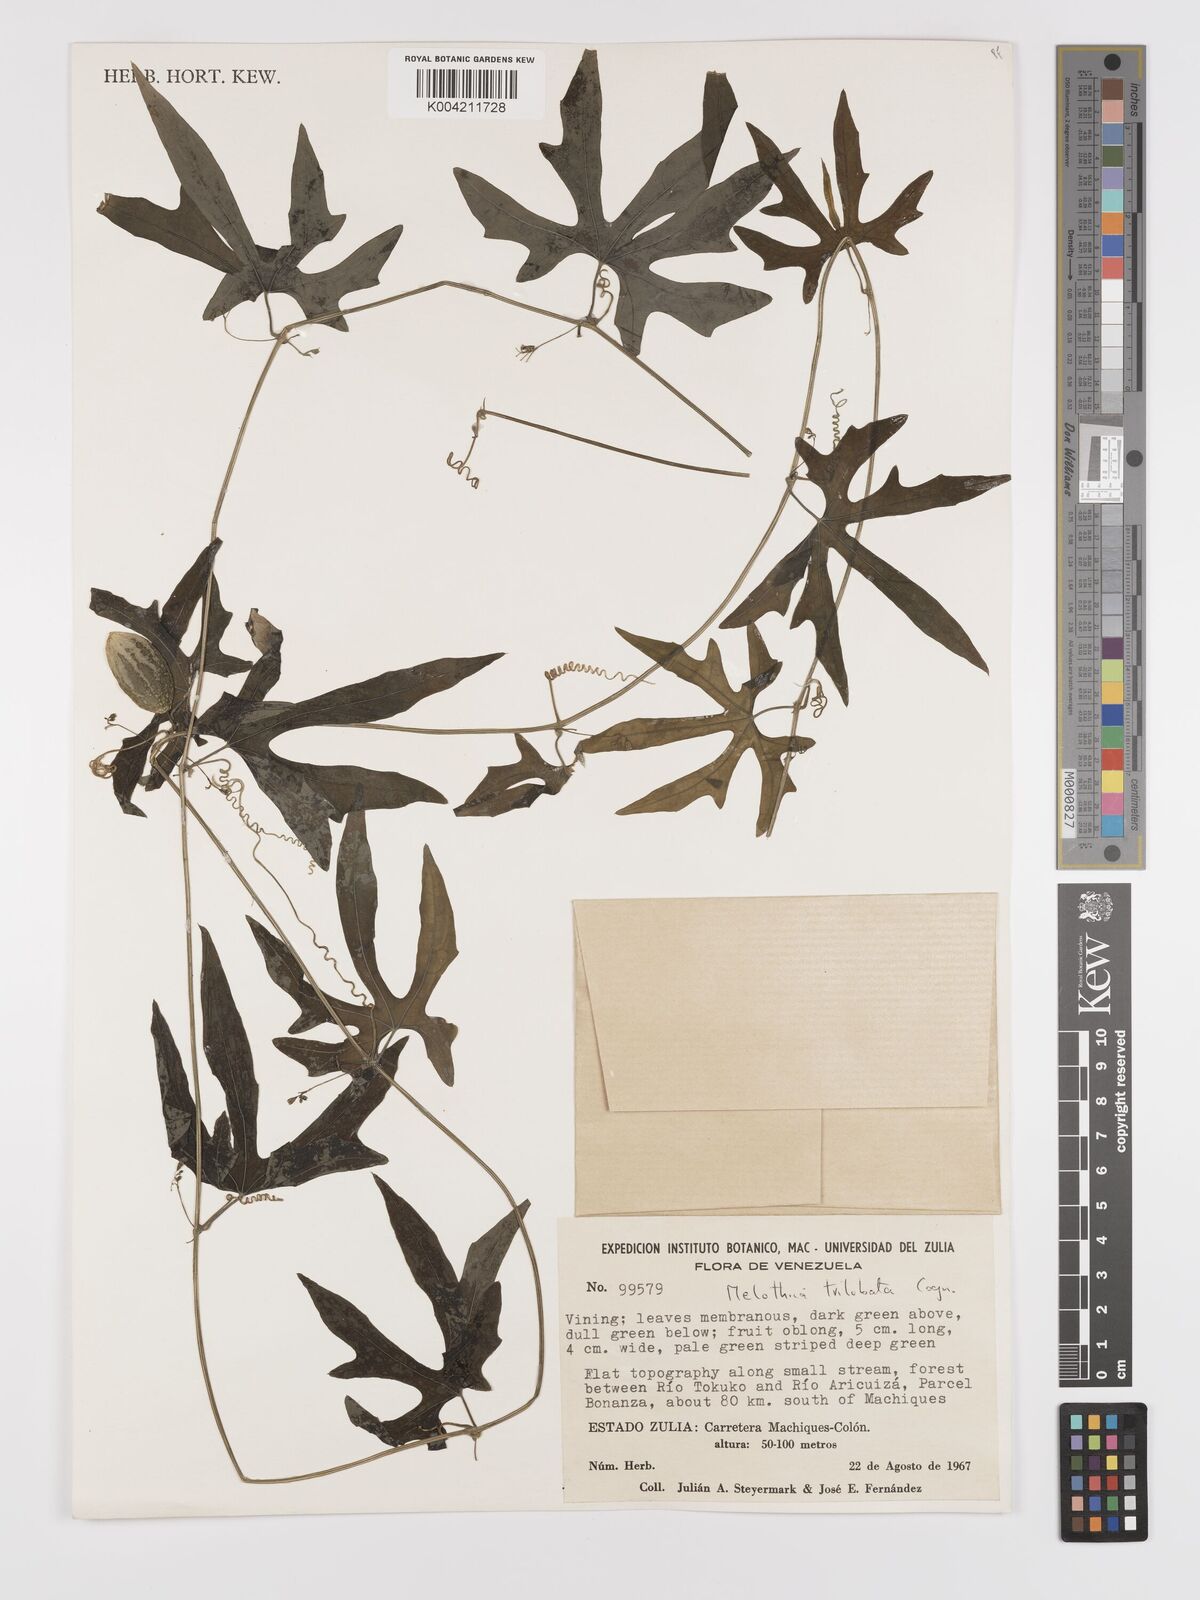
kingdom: Plantae
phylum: Tracheophyta
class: Magnoliopsida
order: Cucurbitales
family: Cucurbitaceae
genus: Melothria
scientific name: Melothria trilobata
